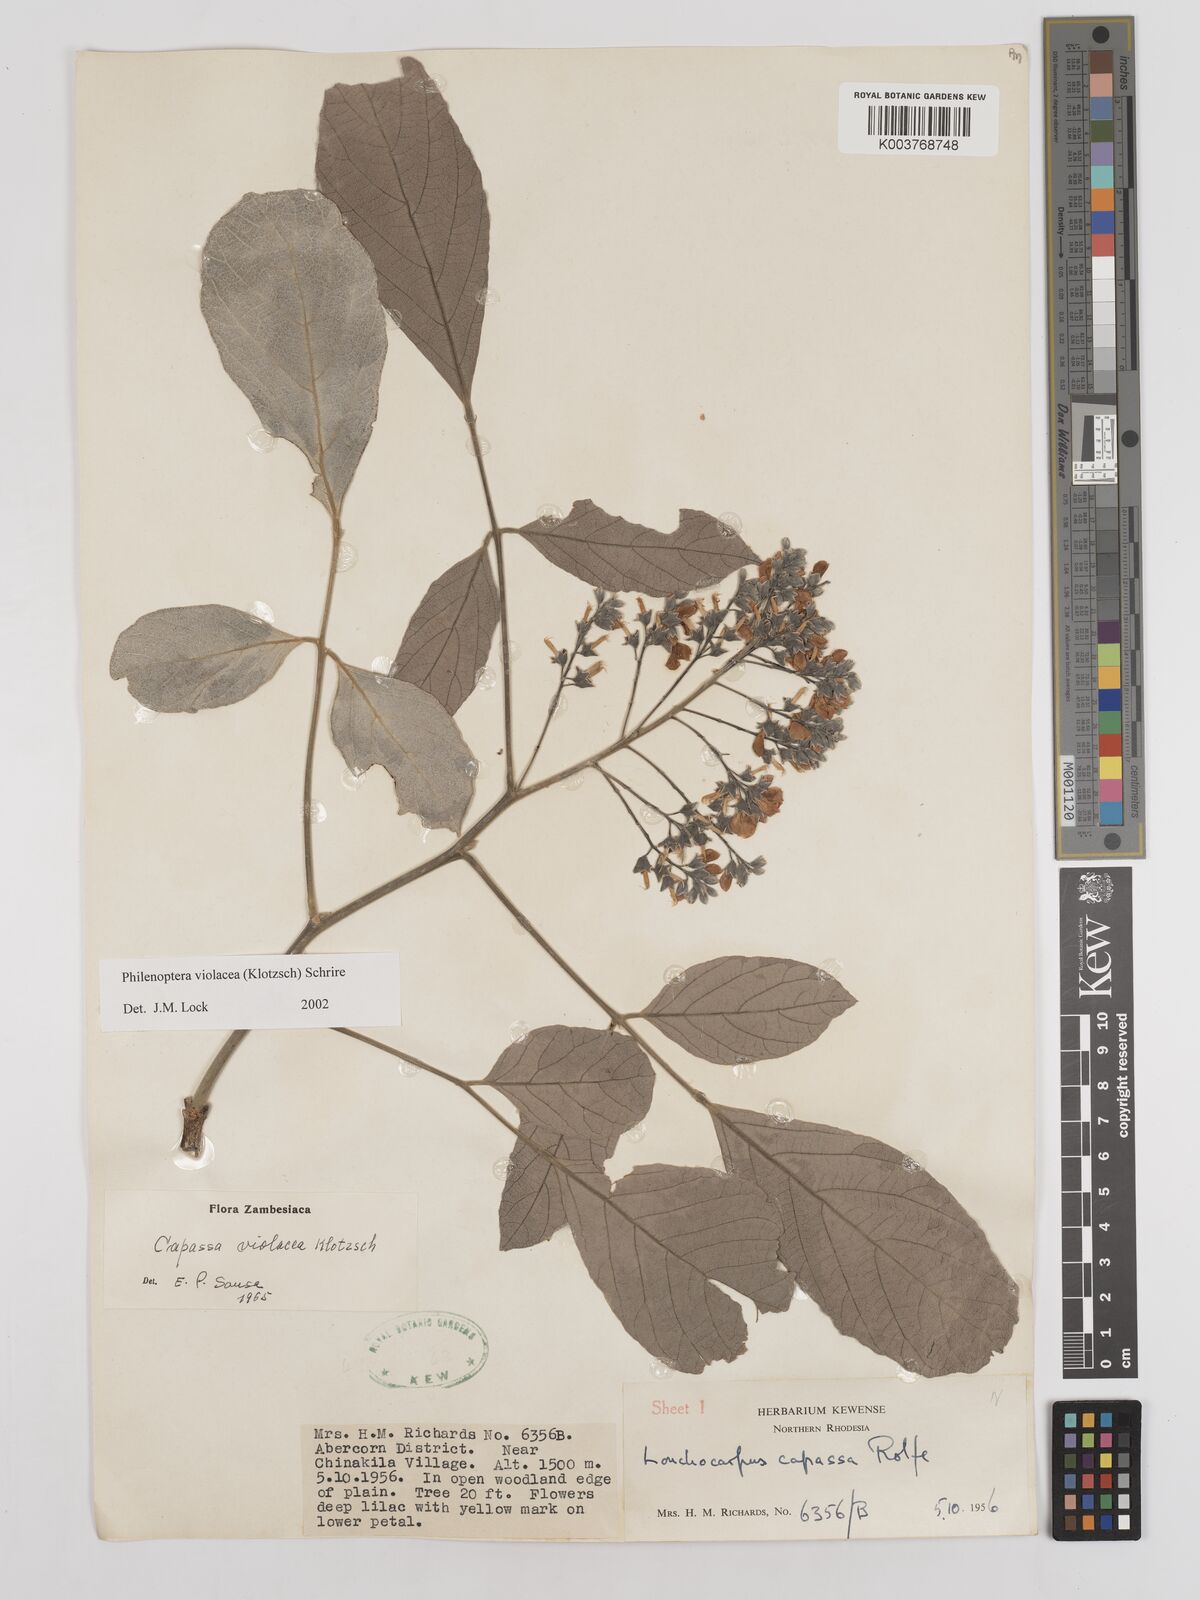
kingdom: Plantae
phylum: Tracheophyta
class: Magnoliopsida
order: Fabales
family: Fabaceae
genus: Philenoptera
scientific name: Philenoptera violacea
